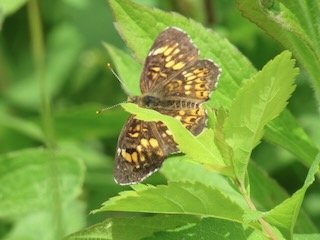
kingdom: Animalia
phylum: Arthropoda
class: Insecta
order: Lepidoptera
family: Nymphalidae
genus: Chlosyne
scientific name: Chlosyne harrisii
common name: Harris's Checkerspot
